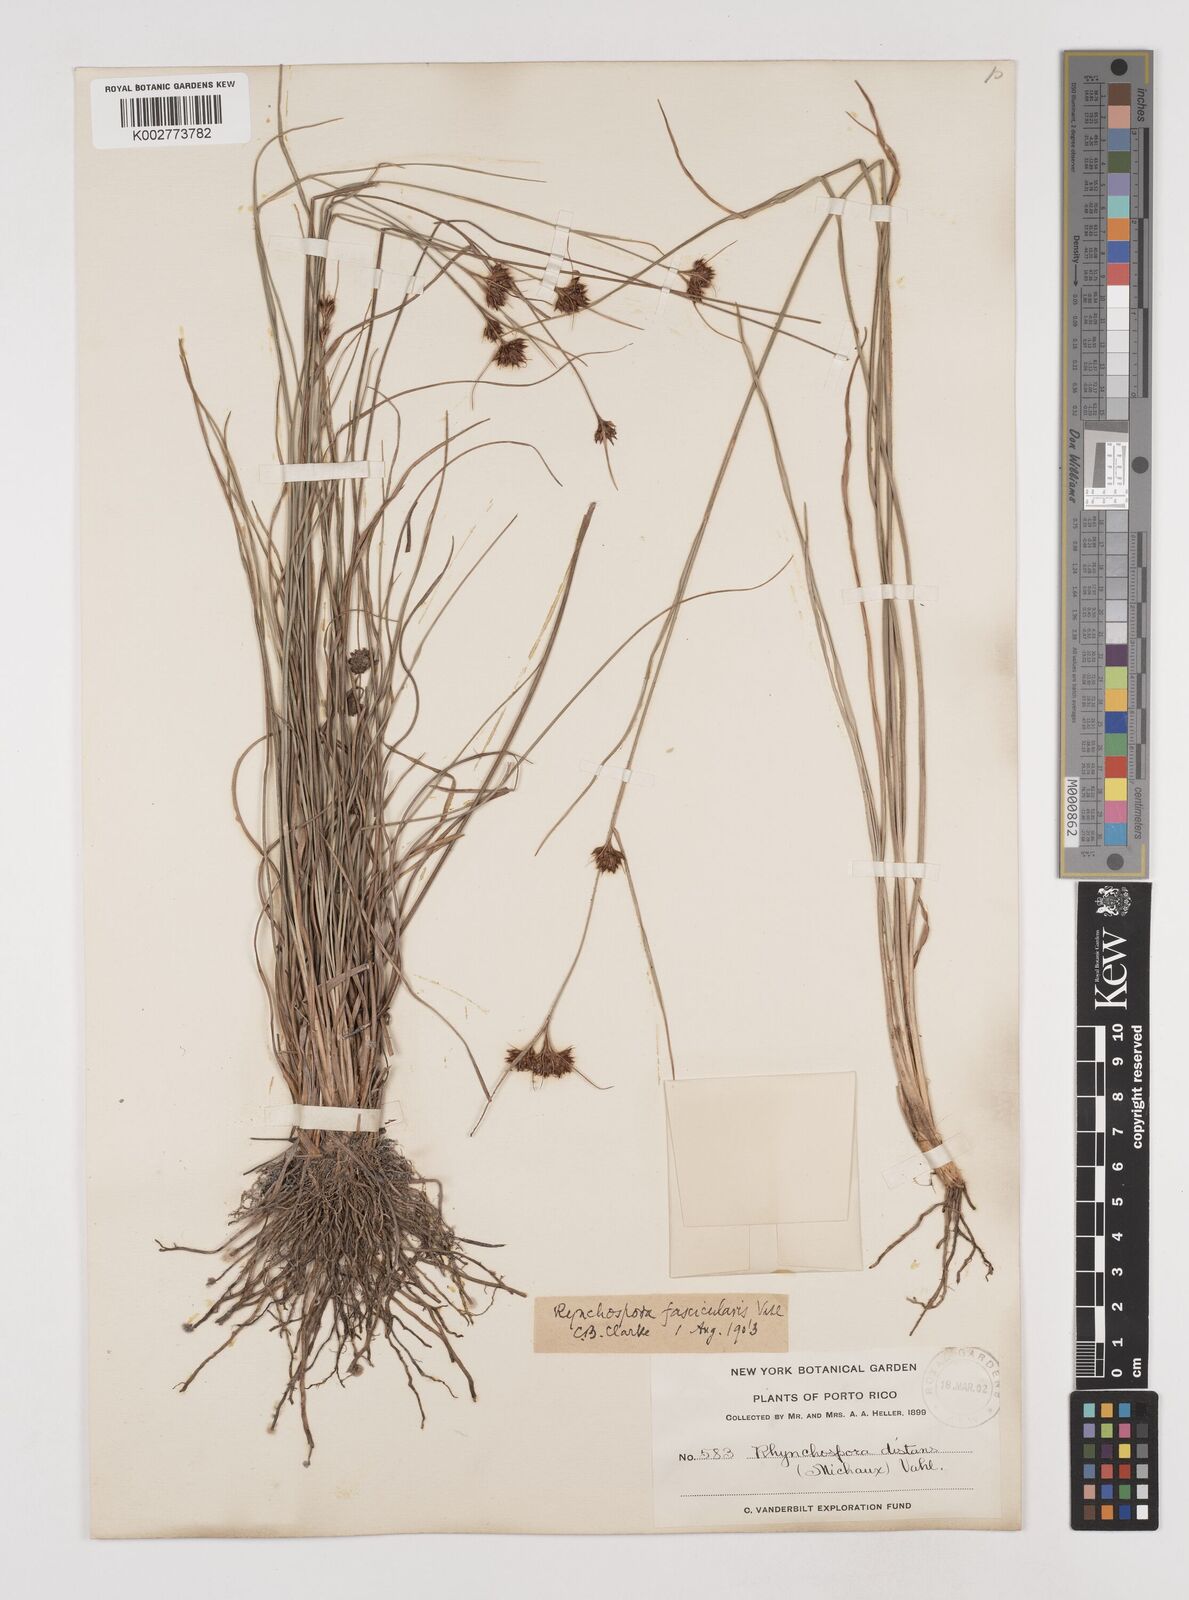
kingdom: Plantae
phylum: Tracheophyta
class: Liliopsida
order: Poales
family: Cyperaceae
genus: Rhynchospora
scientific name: Rhynchospora fascicularis
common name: Fascicled beak sedge
